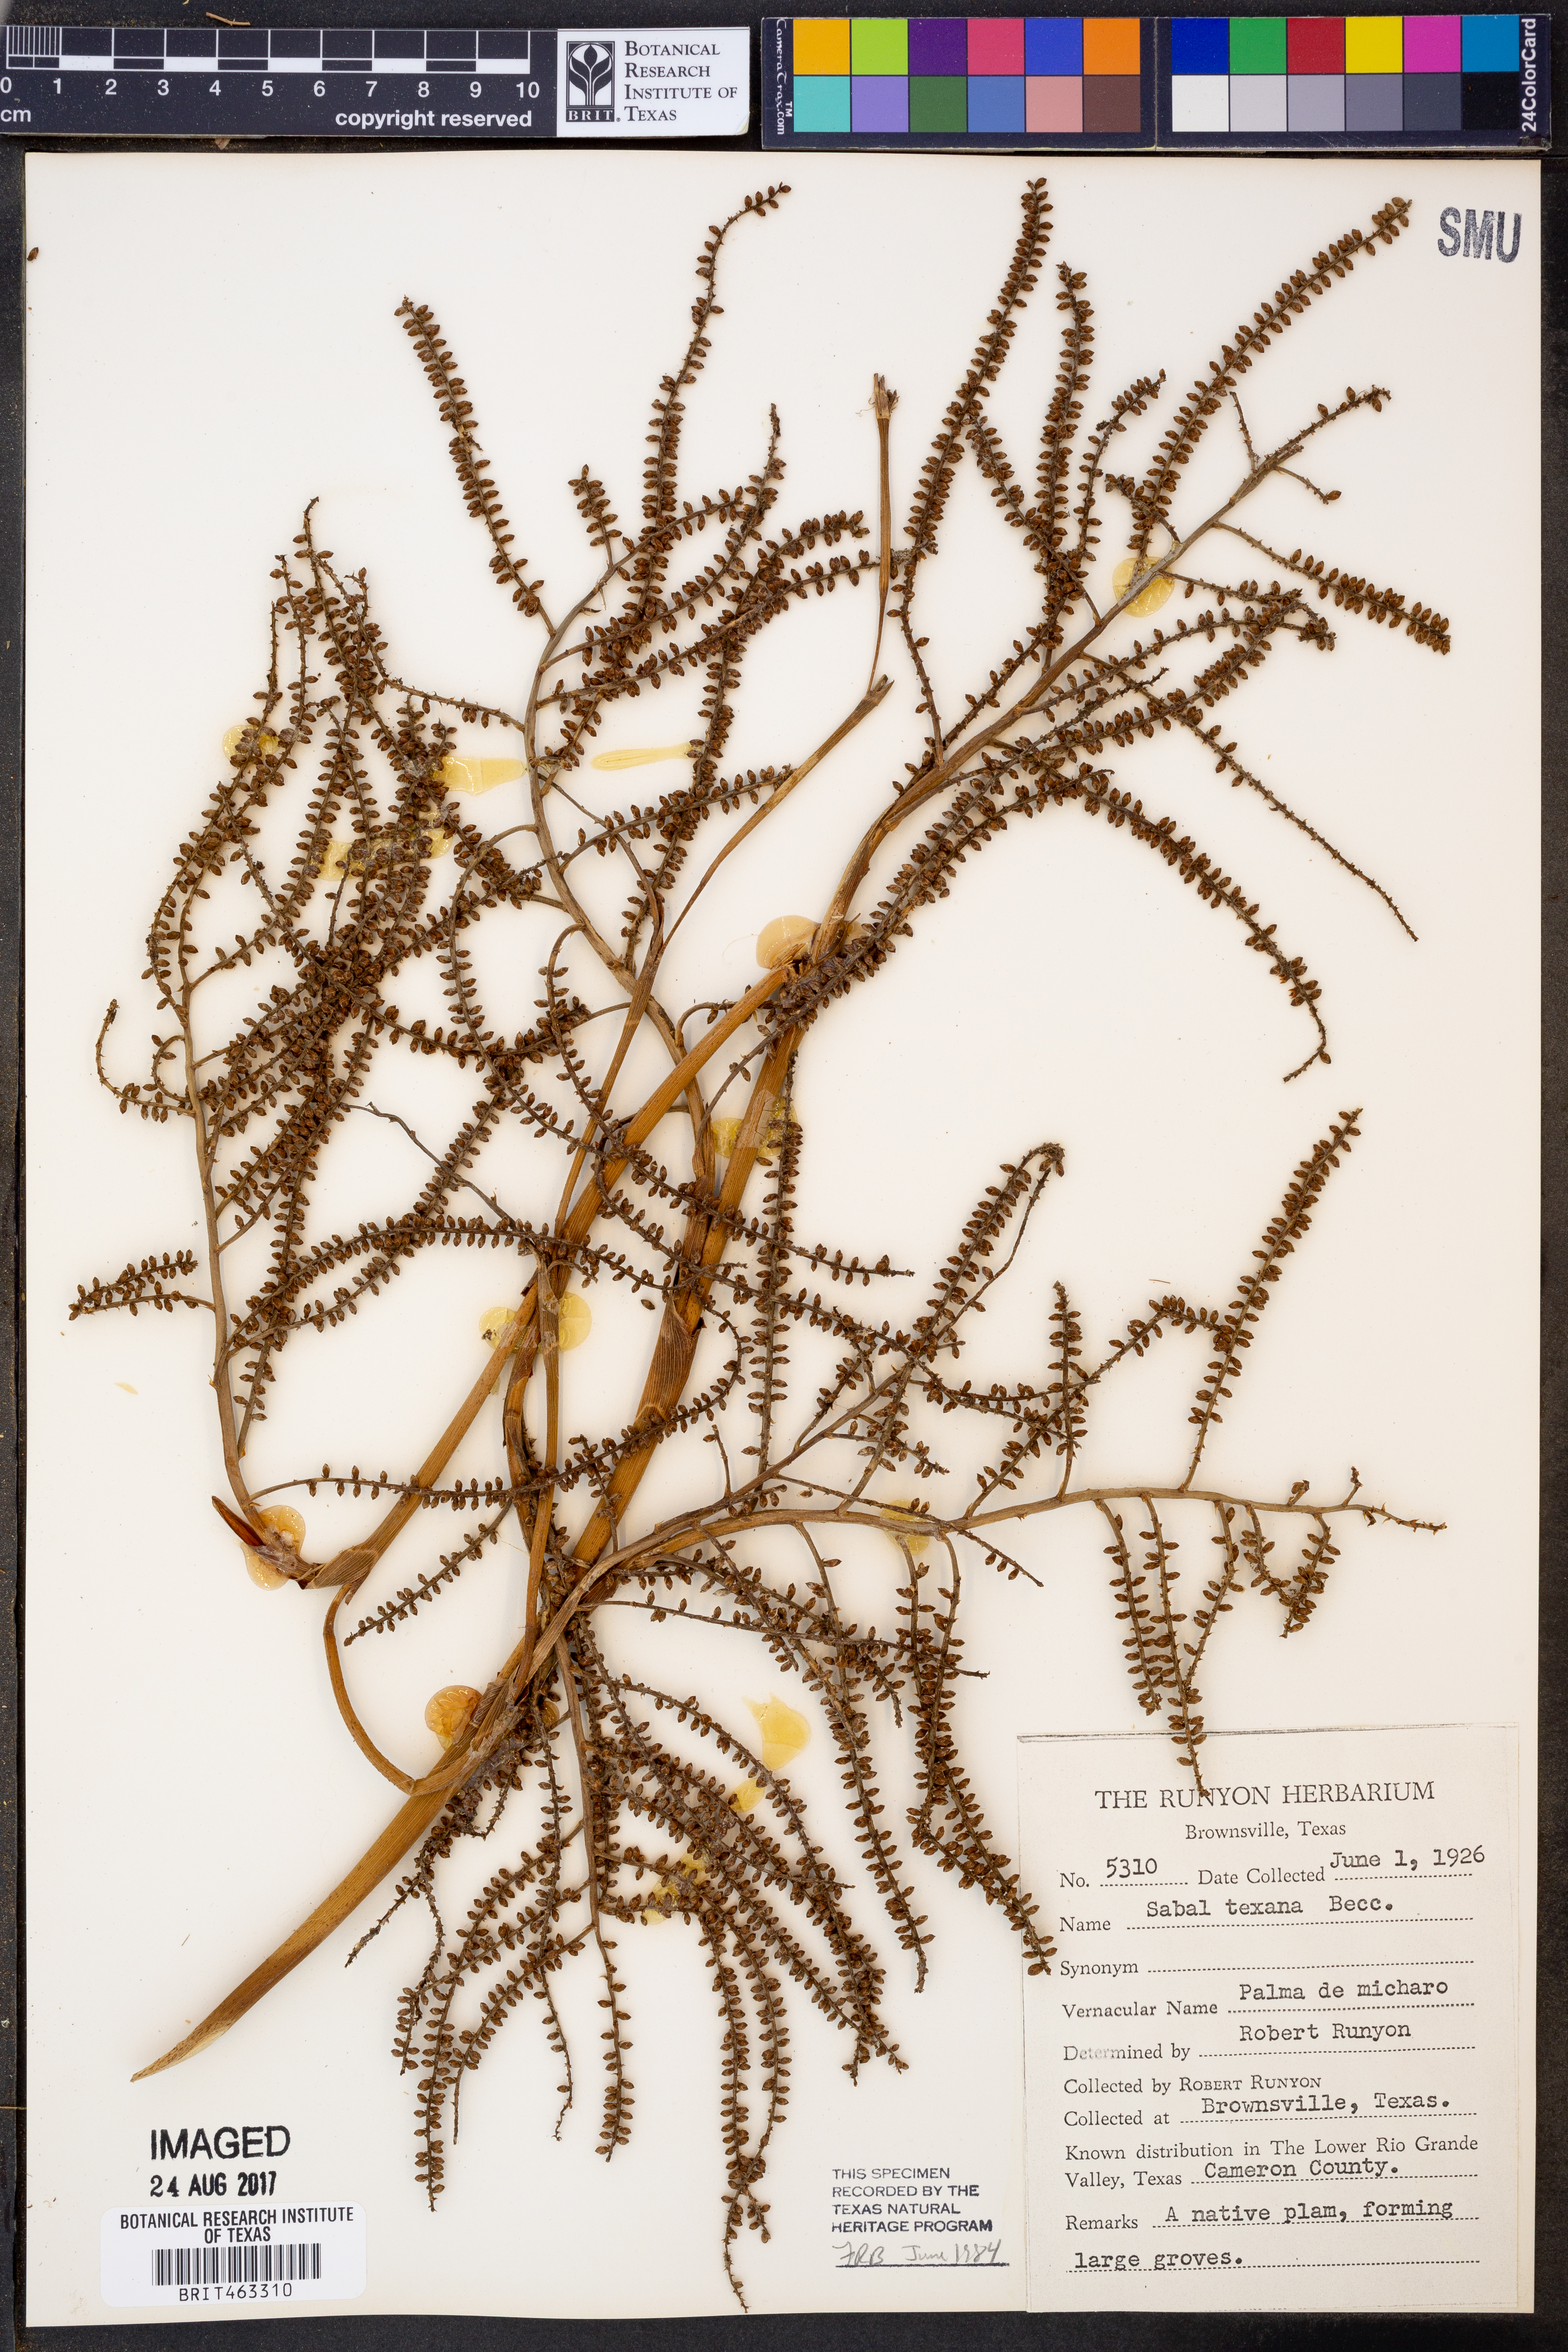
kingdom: Plantae
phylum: Tracheophyta
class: Liliopsida
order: Arecales
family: Arecaceae
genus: Sabal
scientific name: Sabal mexicana
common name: Texas palmetto
